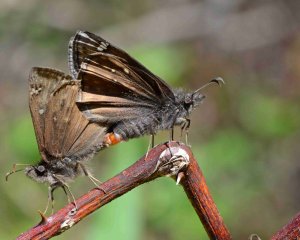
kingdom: Animalia
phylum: Arthropoda
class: Insecta
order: Lepidoptera
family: Hesperiidae
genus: Gesta
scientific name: Gesta
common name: Juvenal's Duskywing
